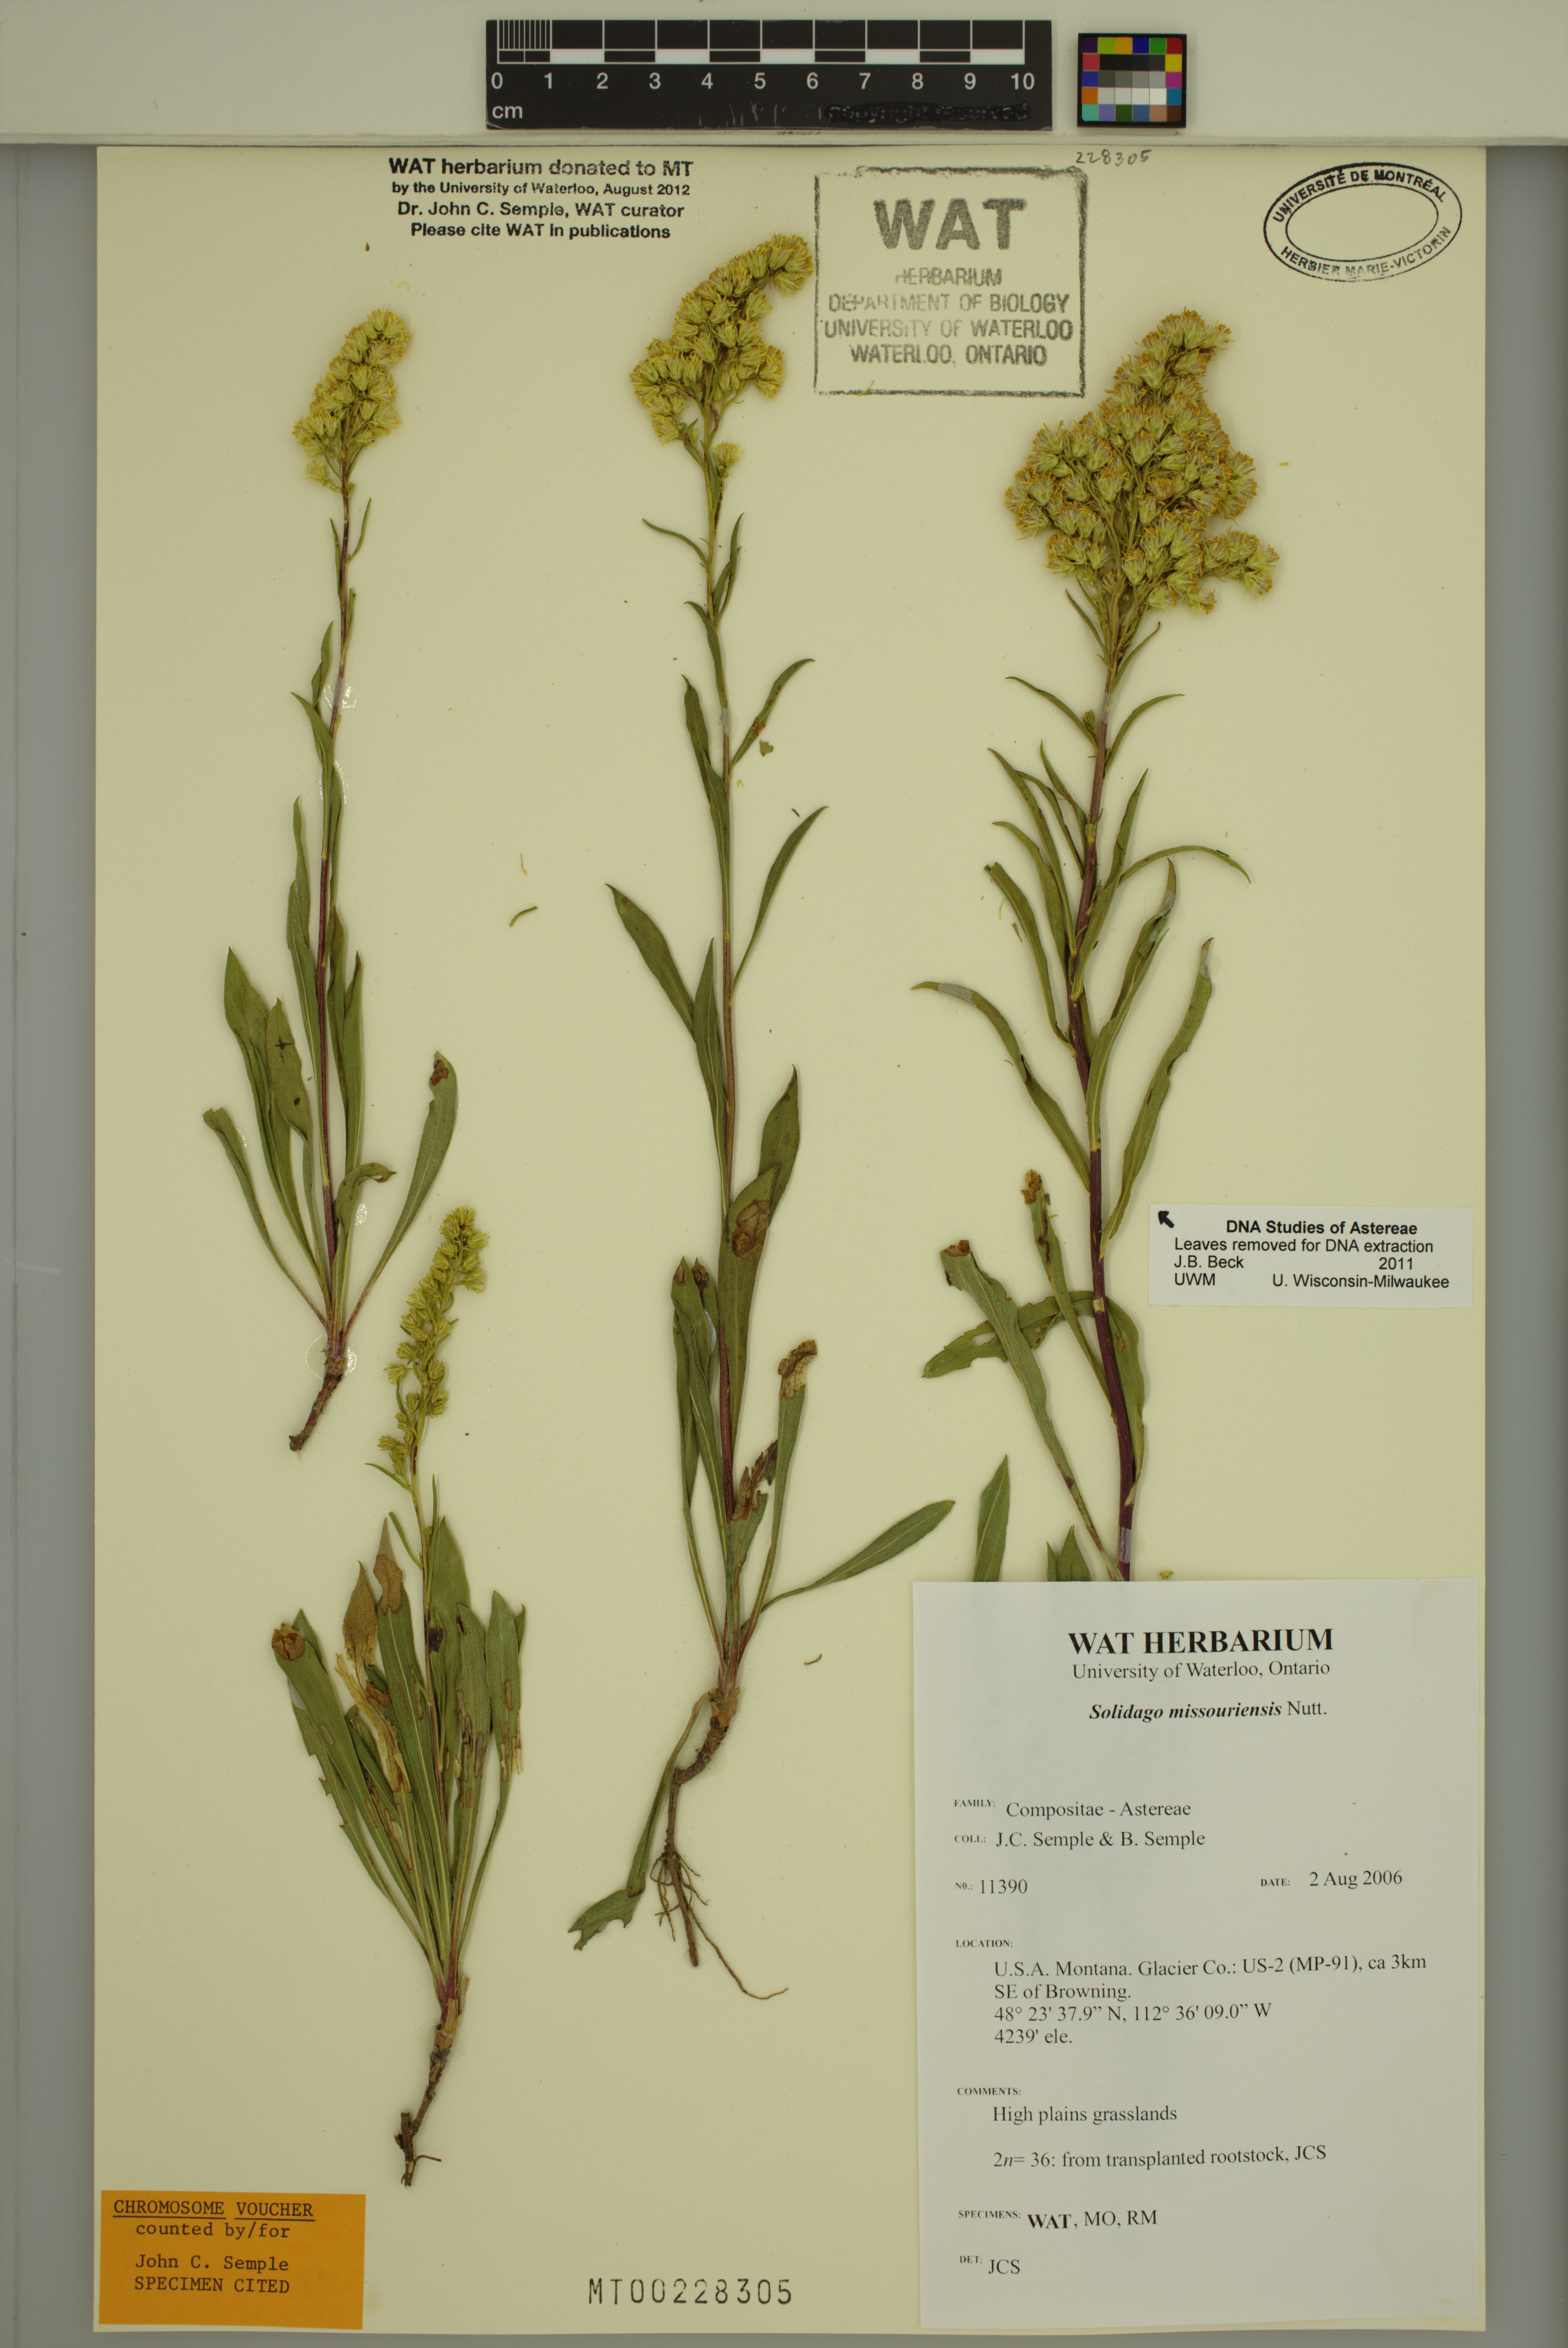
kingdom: Plantae
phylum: Tracheophyta
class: Magnoliopsida
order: Asterales
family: Asteraceae
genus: Solidago
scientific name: Solidago missouriensis
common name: Prairie goldenrod
